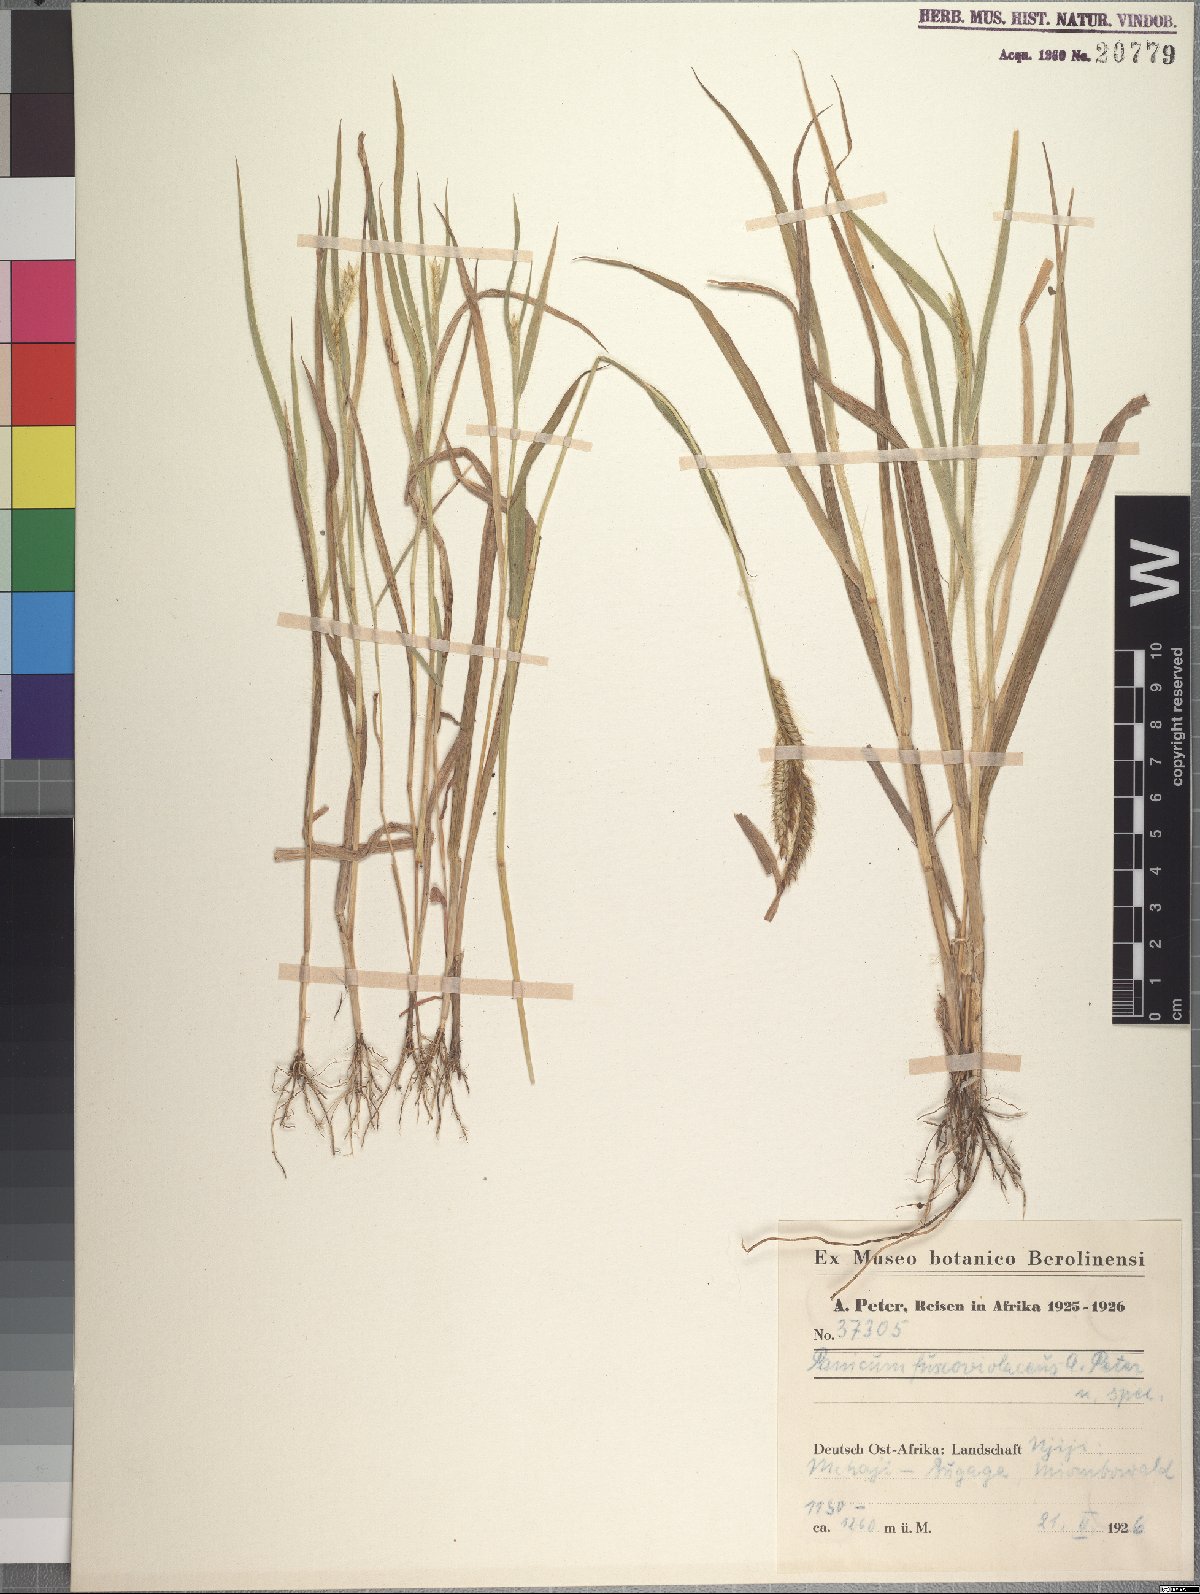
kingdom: Plantae
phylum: Tracheophyta
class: Liliopsida
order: Poales
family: Poaceae
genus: Urochloa
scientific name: Urochloa echinolaenoides
